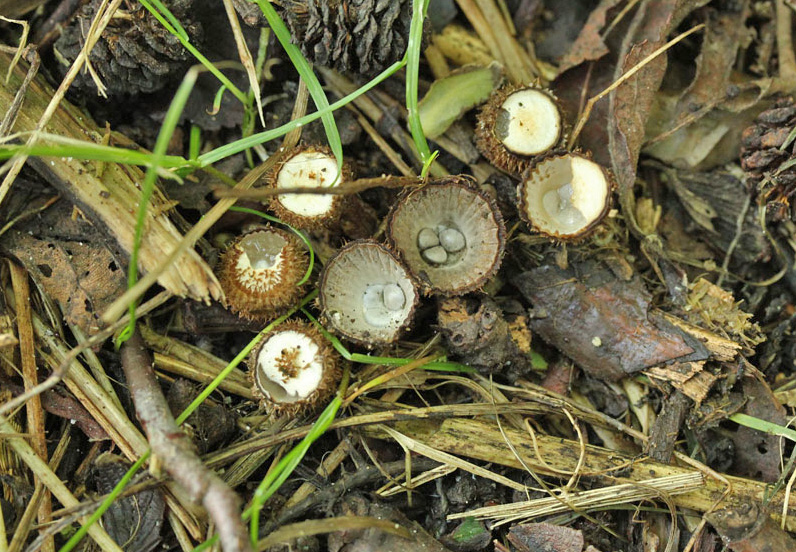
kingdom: Fungi
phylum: Basidiomycota
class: Agaricomycetes
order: Agaricales
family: Agaricaceae
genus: Cyathus
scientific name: Cyathus striatus
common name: stribet redesvamp
